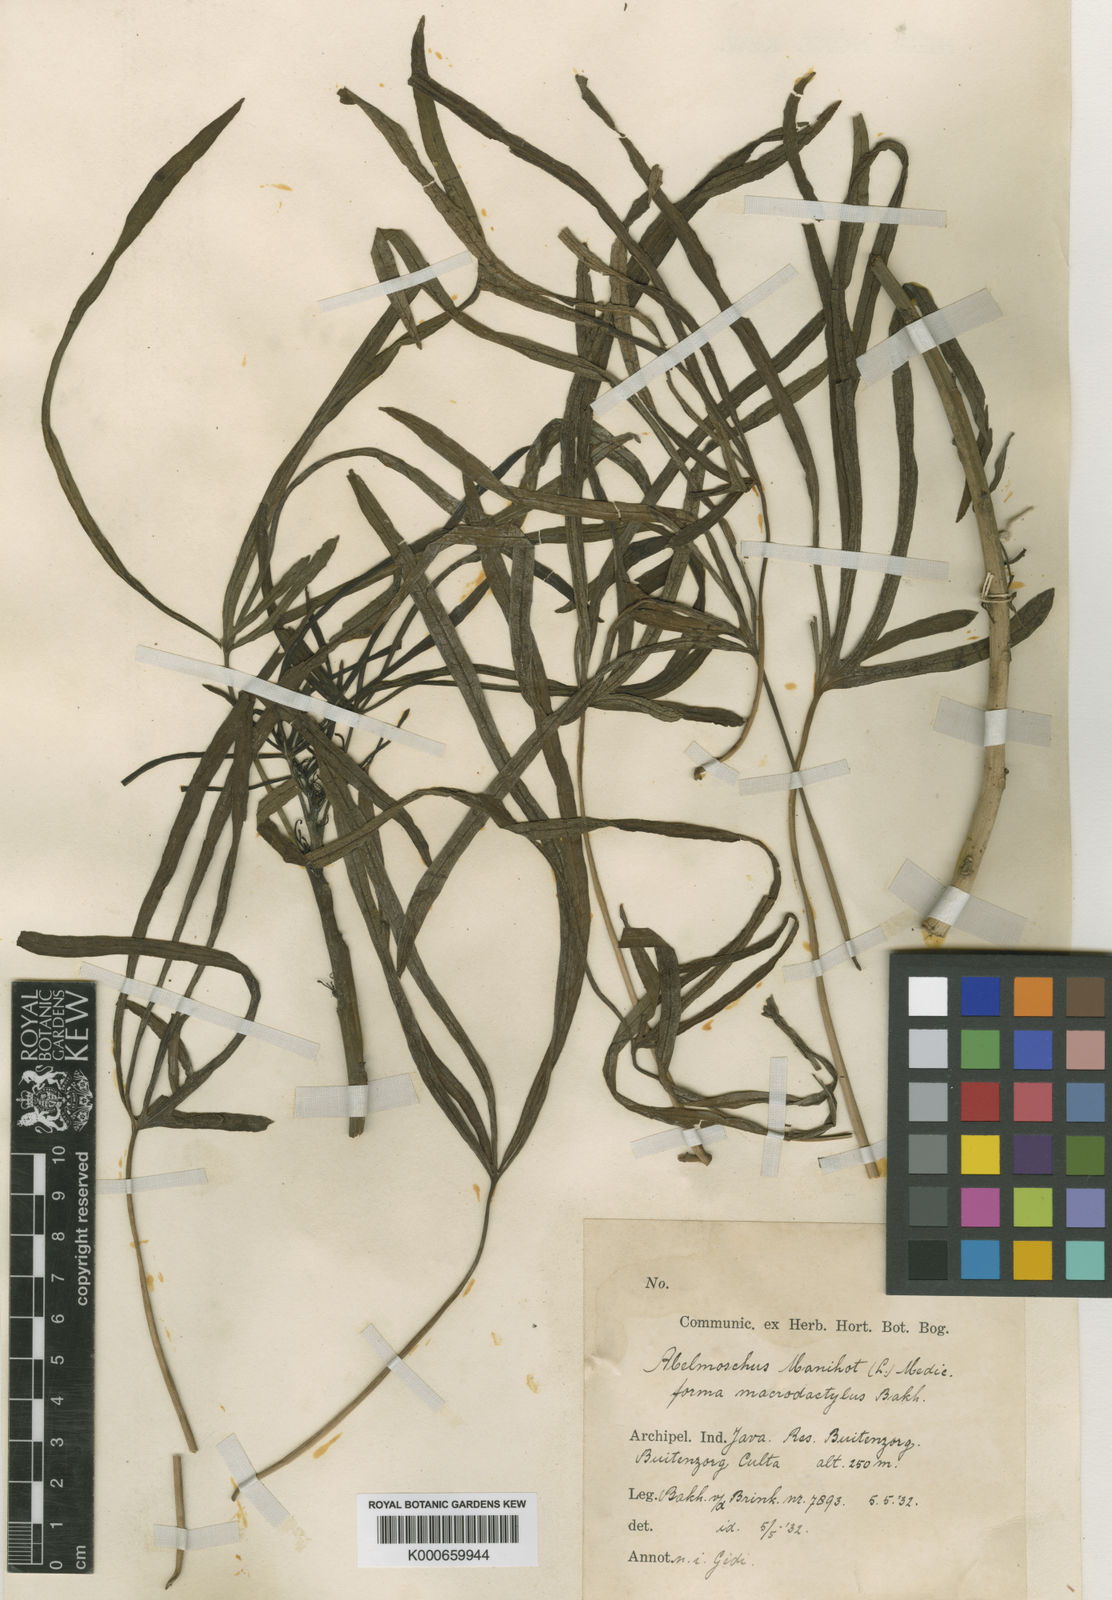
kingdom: Plantae
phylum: Tracheophyta
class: Magnoliopsida
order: Malvales
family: Malvaceae
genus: Abelmoschus
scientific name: Abelmoschus manihot
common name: Sunset muskmallow
